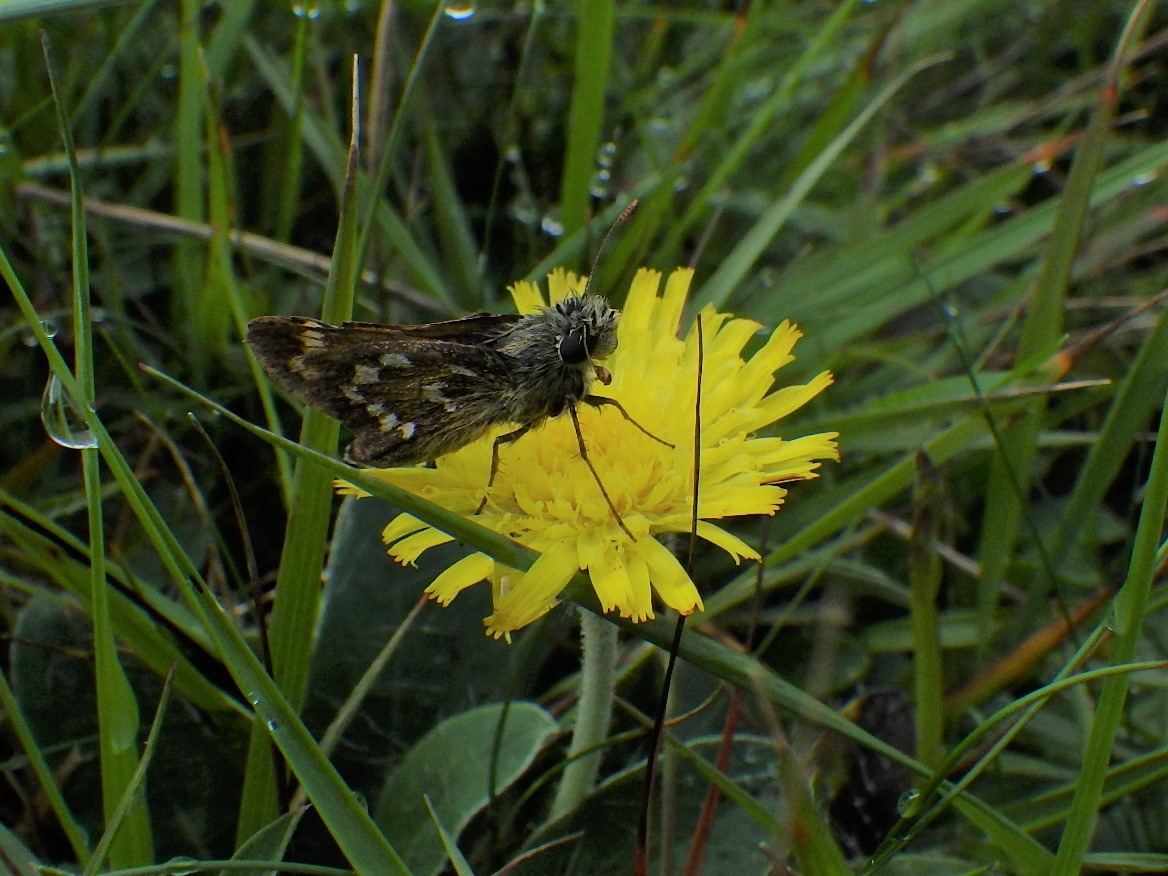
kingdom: Animalia
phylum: Arthropoda
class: Insecta
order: Lepidoptera
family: Hesperiidae
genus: Hesperia
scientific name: Hesperia comma
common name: Kommabredpande
